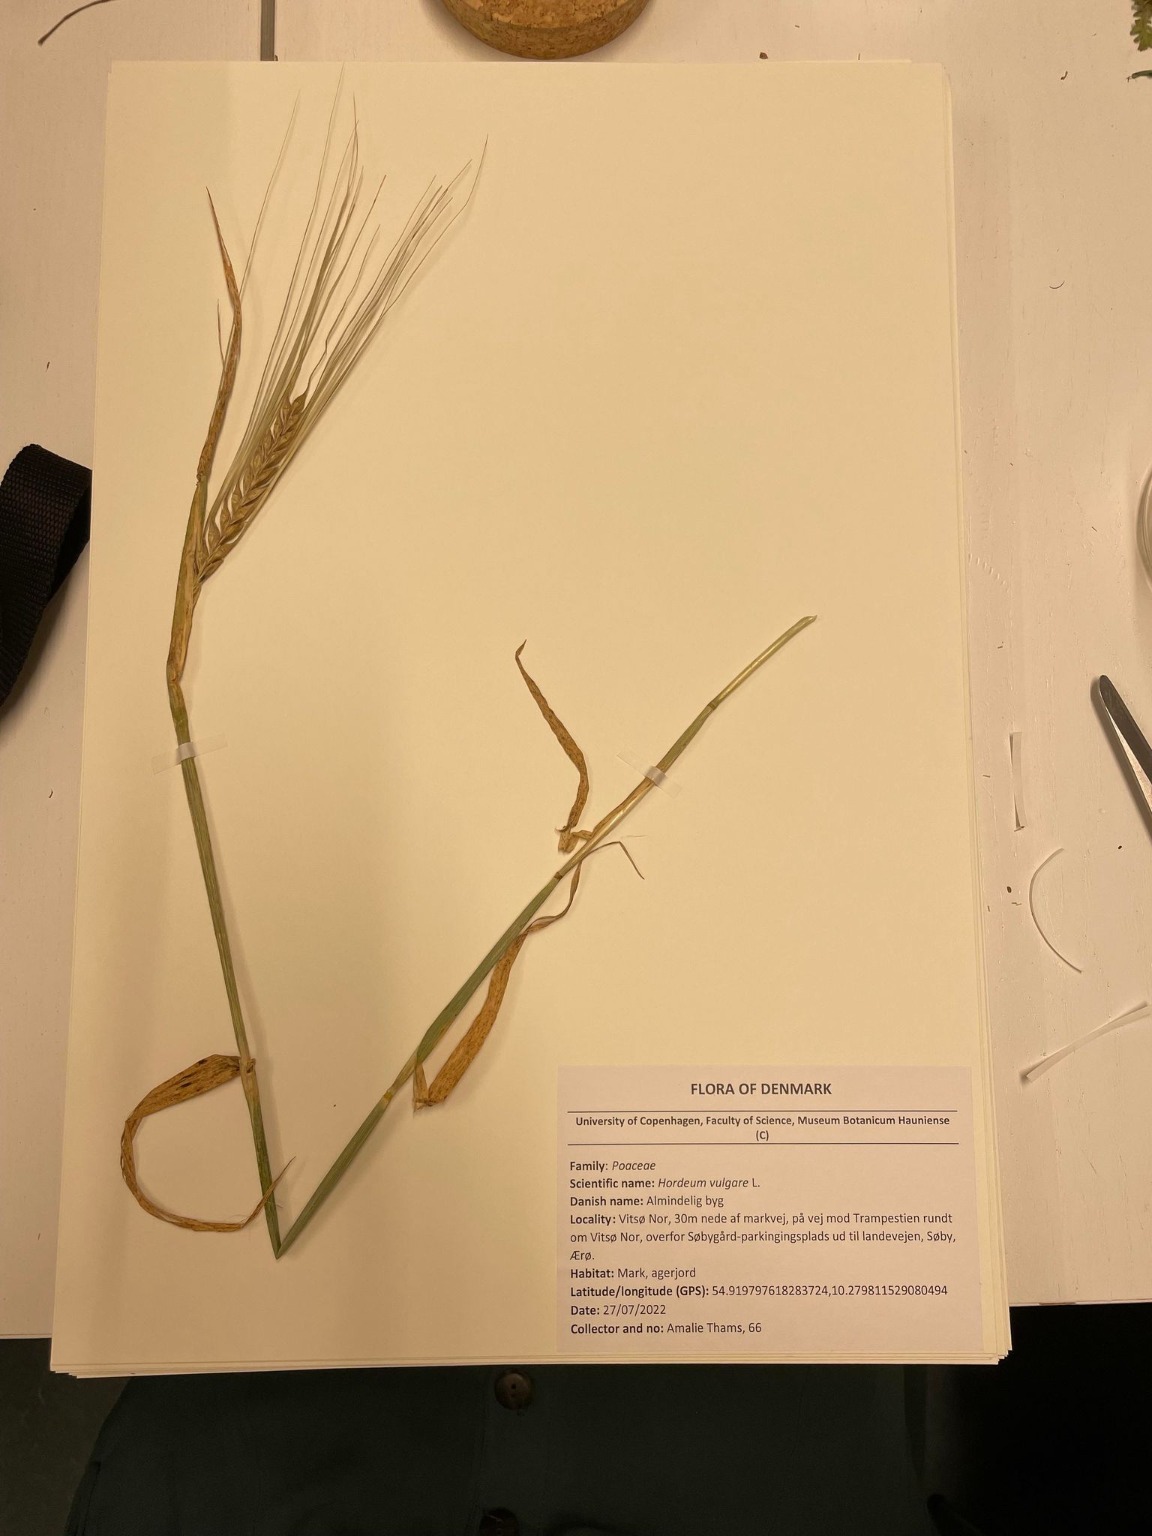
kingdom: Plantae
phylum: Tracheophyta
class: Liliopsida
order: Poales
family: Poaceae
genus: Hordeum
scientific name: Hordeum vulgare
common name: Almindelig byg
